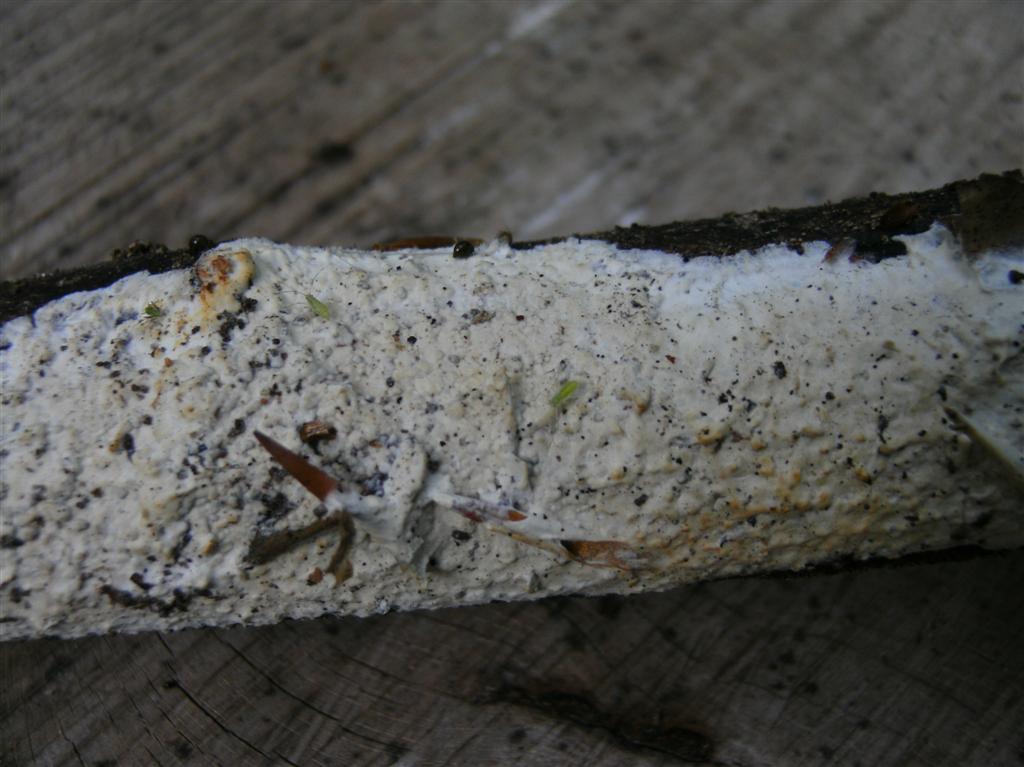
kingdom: Fungi
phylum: Basidiomycota
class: Agaricomycetes
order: Polyporales
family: Irpicaceae
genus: Efibula
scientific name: Efibula tuberculata
